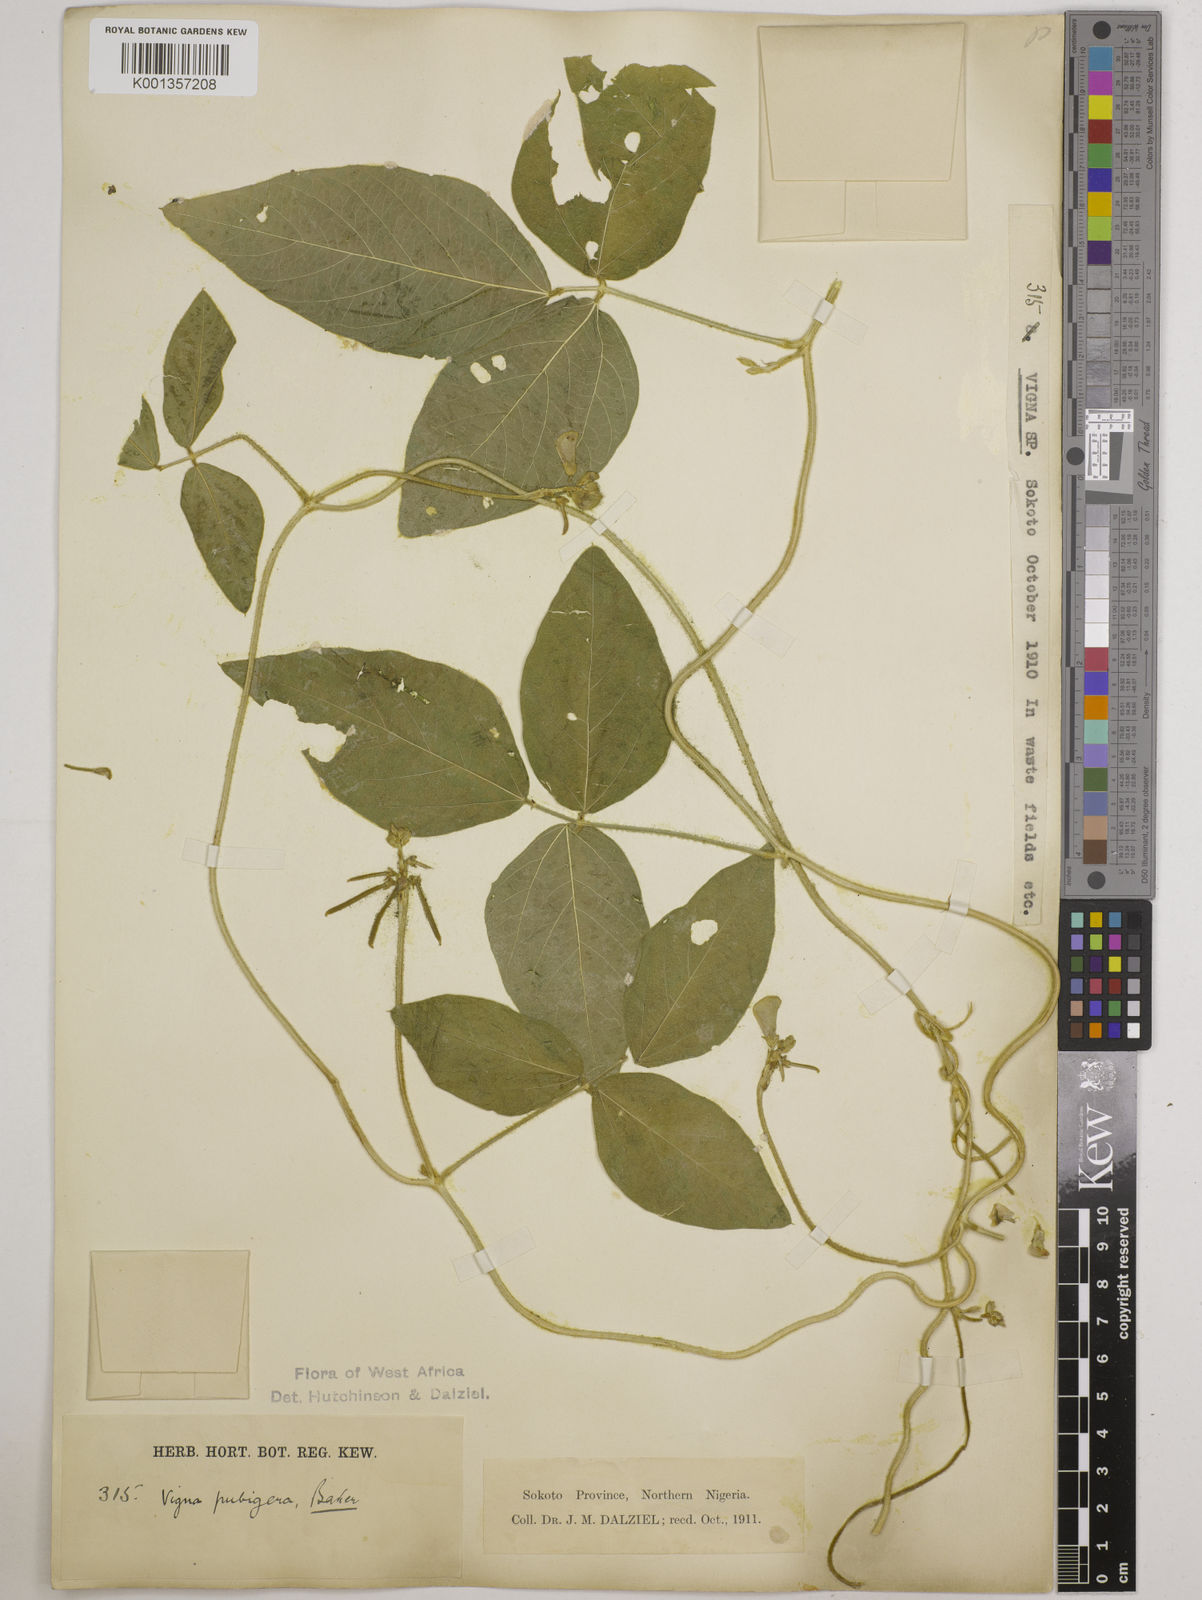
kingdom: Plantae
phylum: Tracheophyta
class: Magnoliopsida
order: Fabales
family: Fabaceae
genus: Vigna
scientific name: Vigna ambacensis
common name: Tsarkiyan zomo
